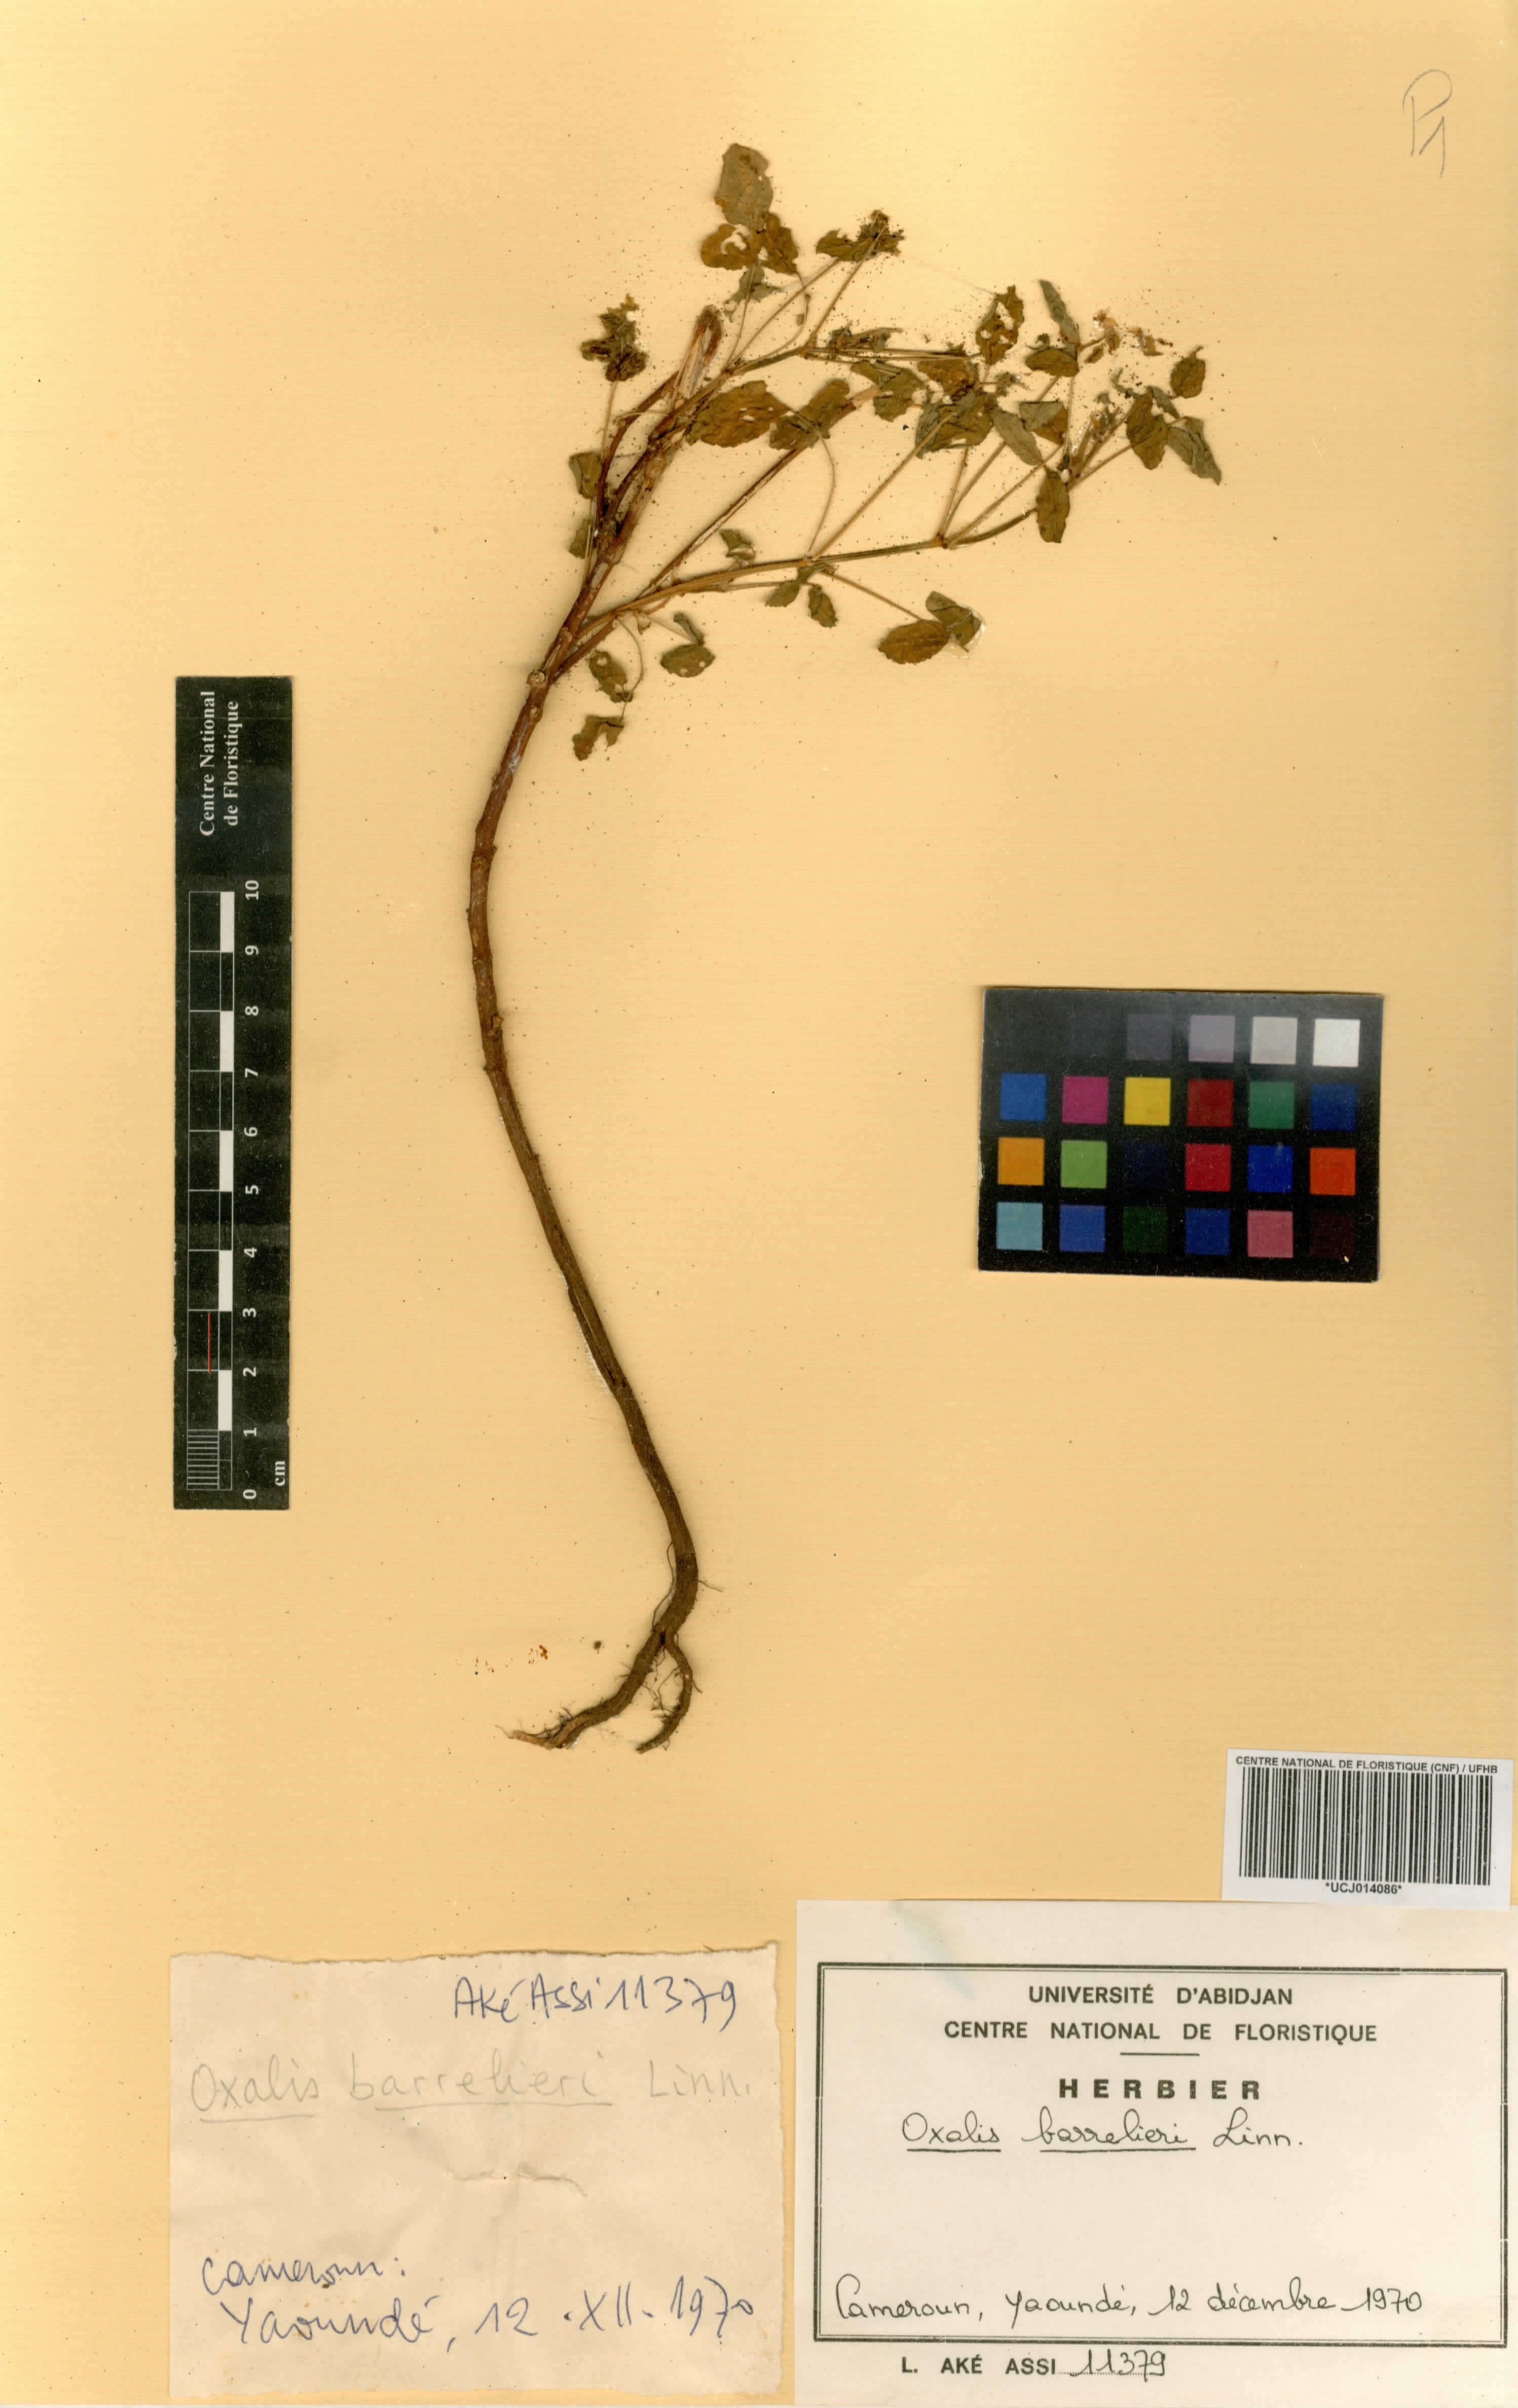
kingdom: Plantae
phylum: Tracheophyta
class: Magnoliopsida
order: Oxalidales
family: Oxalidaceae
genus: Oxalis
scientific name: Oxalis barrelieri
